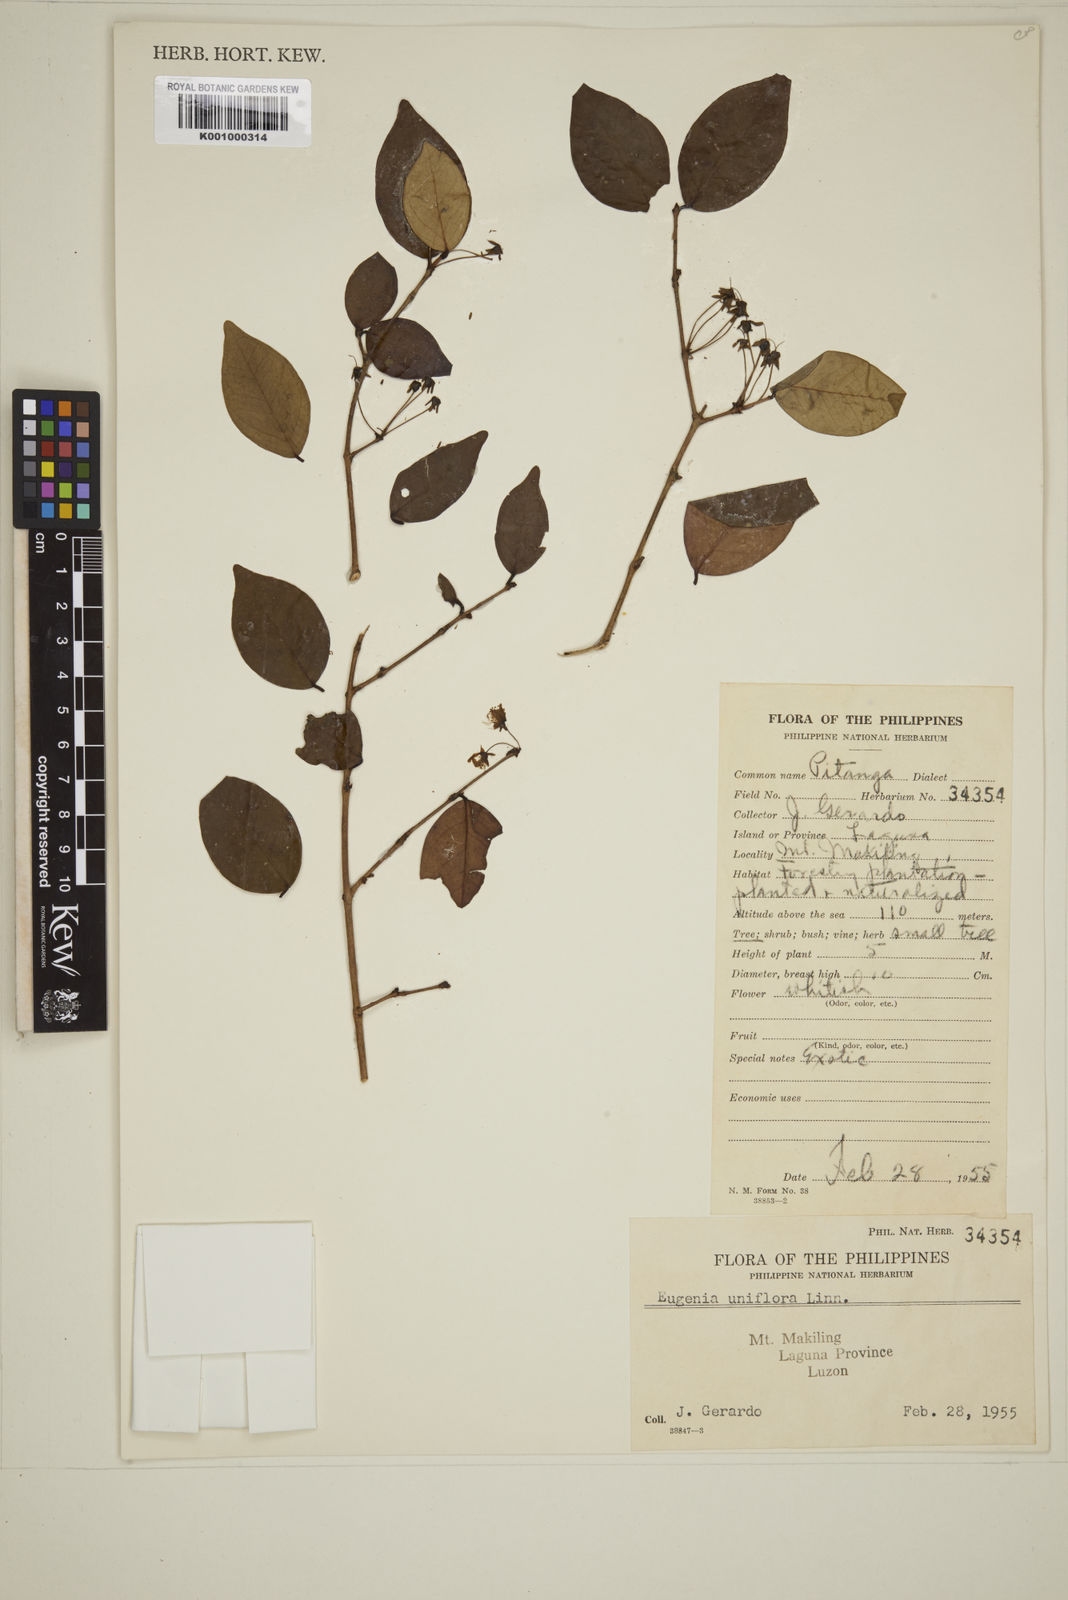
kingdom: Plantae
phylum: Tracheophyta
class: Magnoliopsida
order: Myrtales
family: Myrtaceae
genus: Eugenia
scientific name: Eugenia uniflora
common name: Surinam cherry
